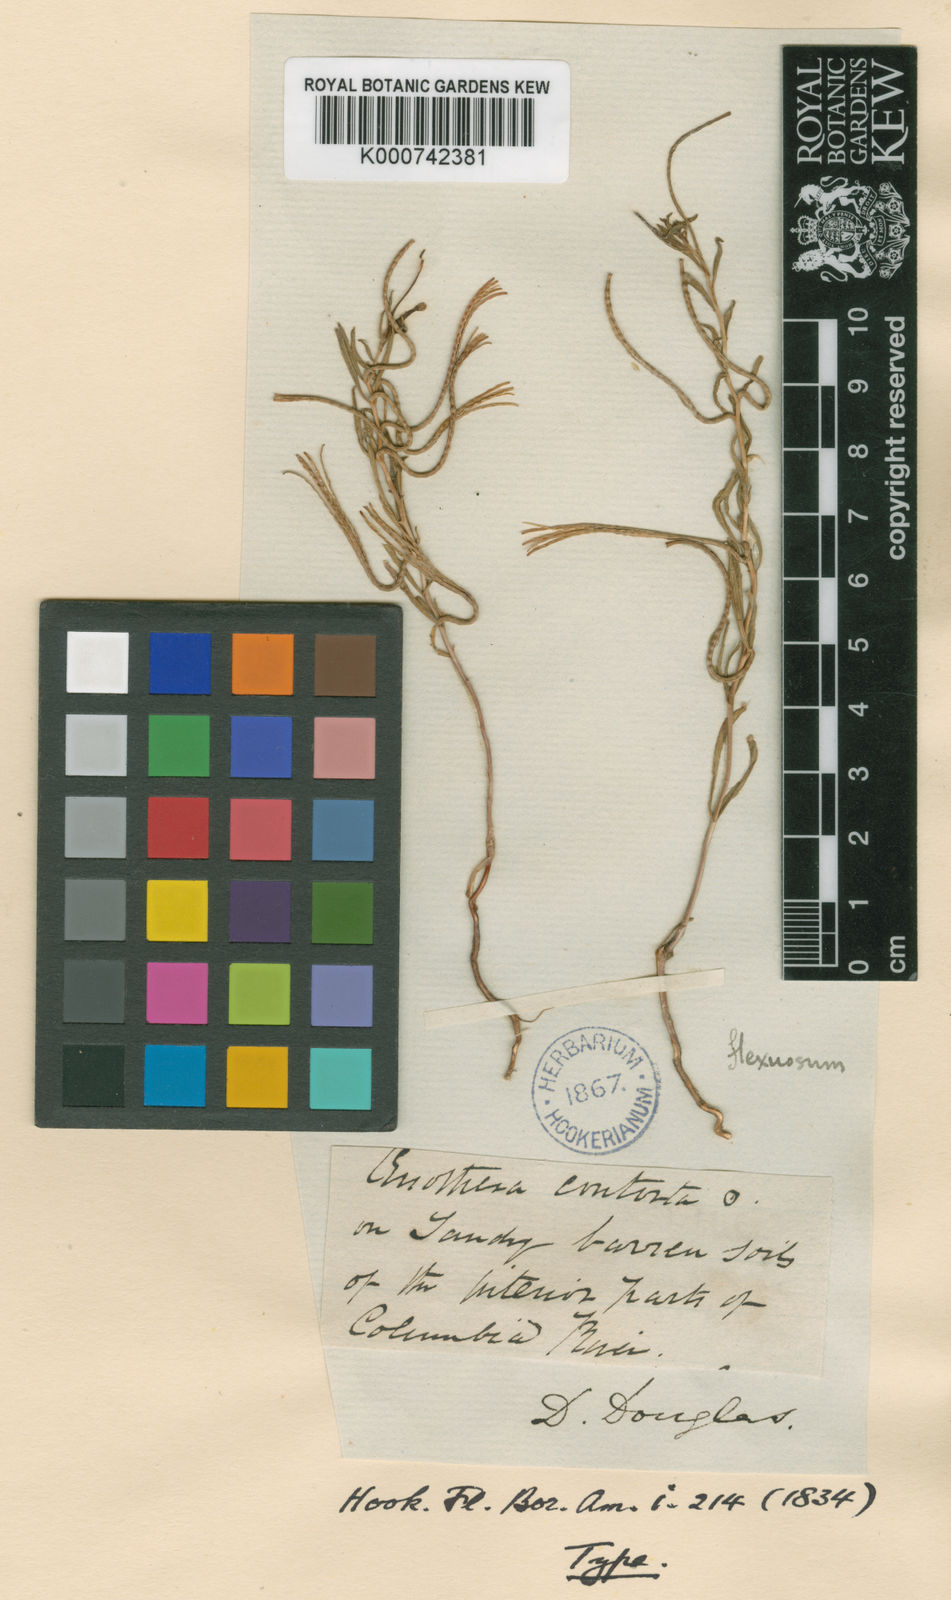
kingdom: Plantae
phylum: Tracheophyta
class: Magnoliopsida
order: Myrtales
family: Onagraceae
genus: Camissonia
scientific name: Camissonia contorta
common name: Contorted suncup
